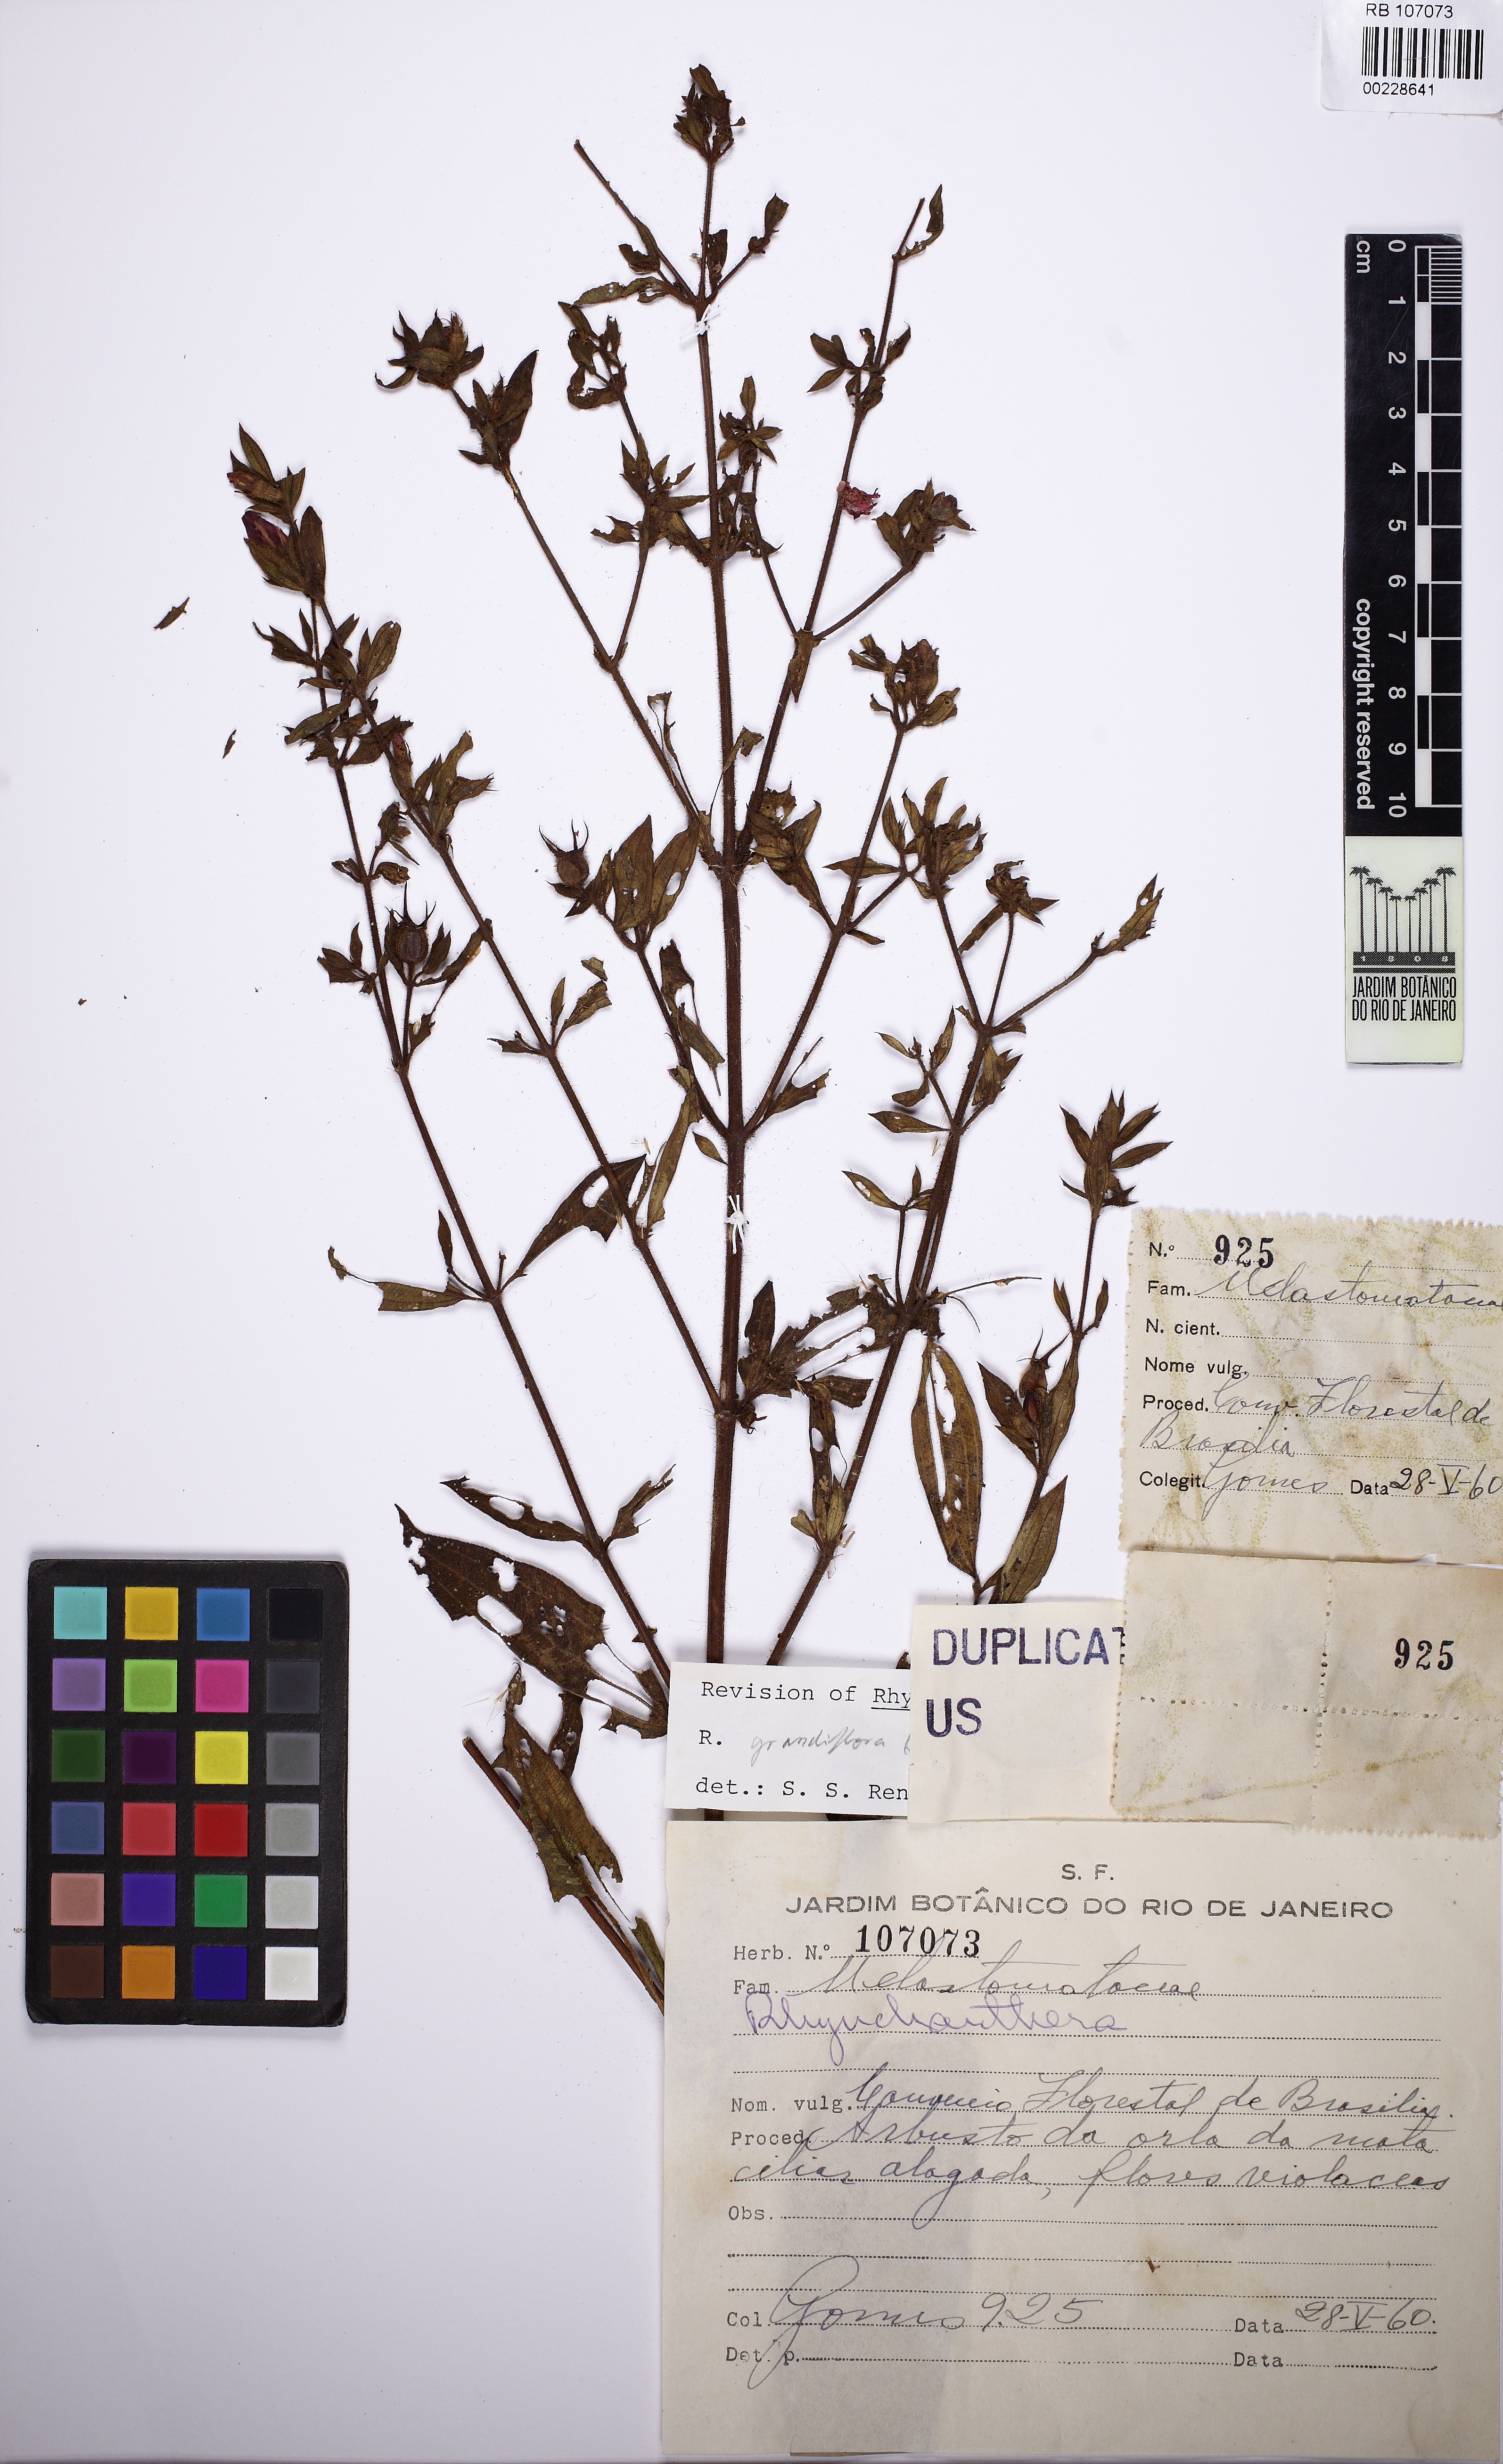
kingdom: Plantae
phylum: Tracheophyta
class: Magnoliopsida
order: Myrtales
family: Melastomataceae
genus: Rhynchanthera
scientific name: Rhynchanthera grandiflora
